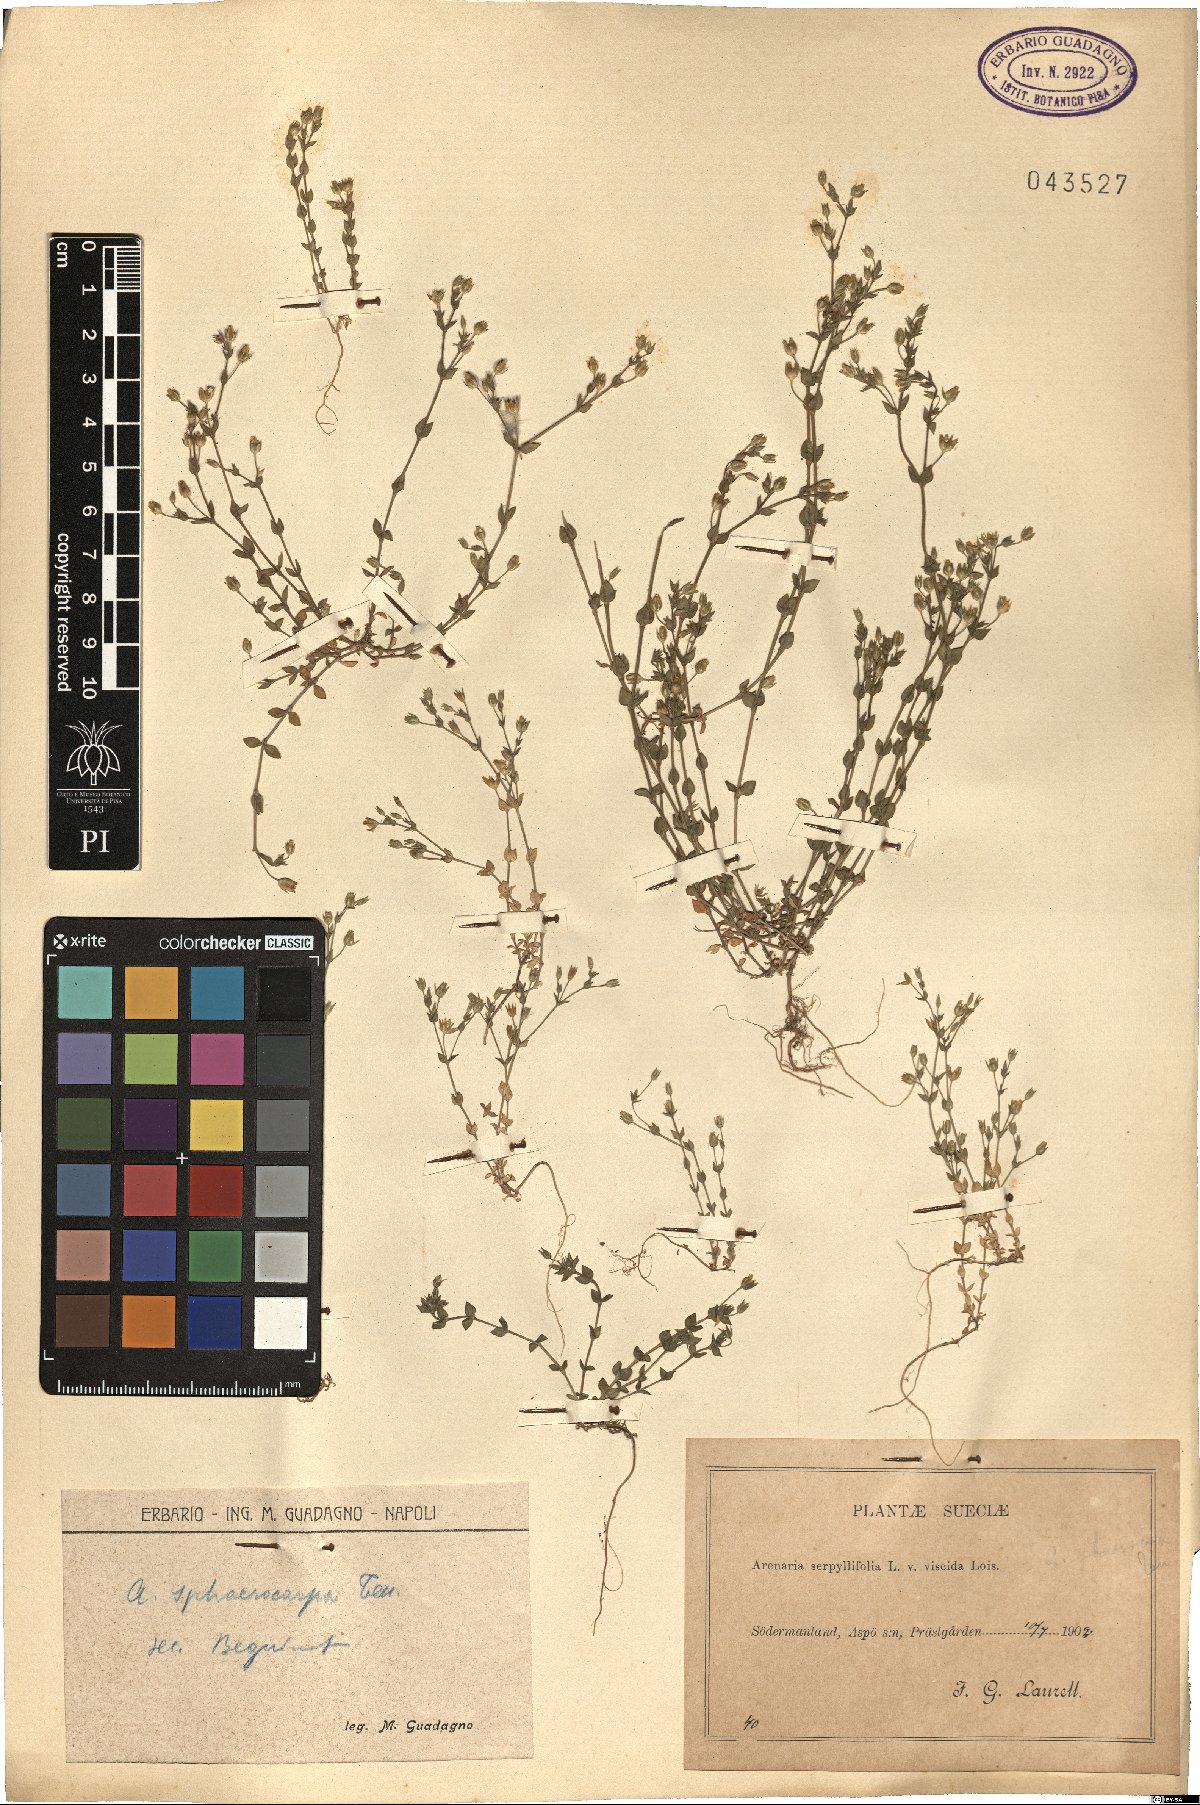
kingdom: Plantae
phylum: Tracheophyta
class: Magnoliopsida
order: Caryophyllales
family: Caryophyllaceae
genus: Arenaria
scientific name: Arenaria serpyllifolia
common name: Thyme-leaved sandwort
